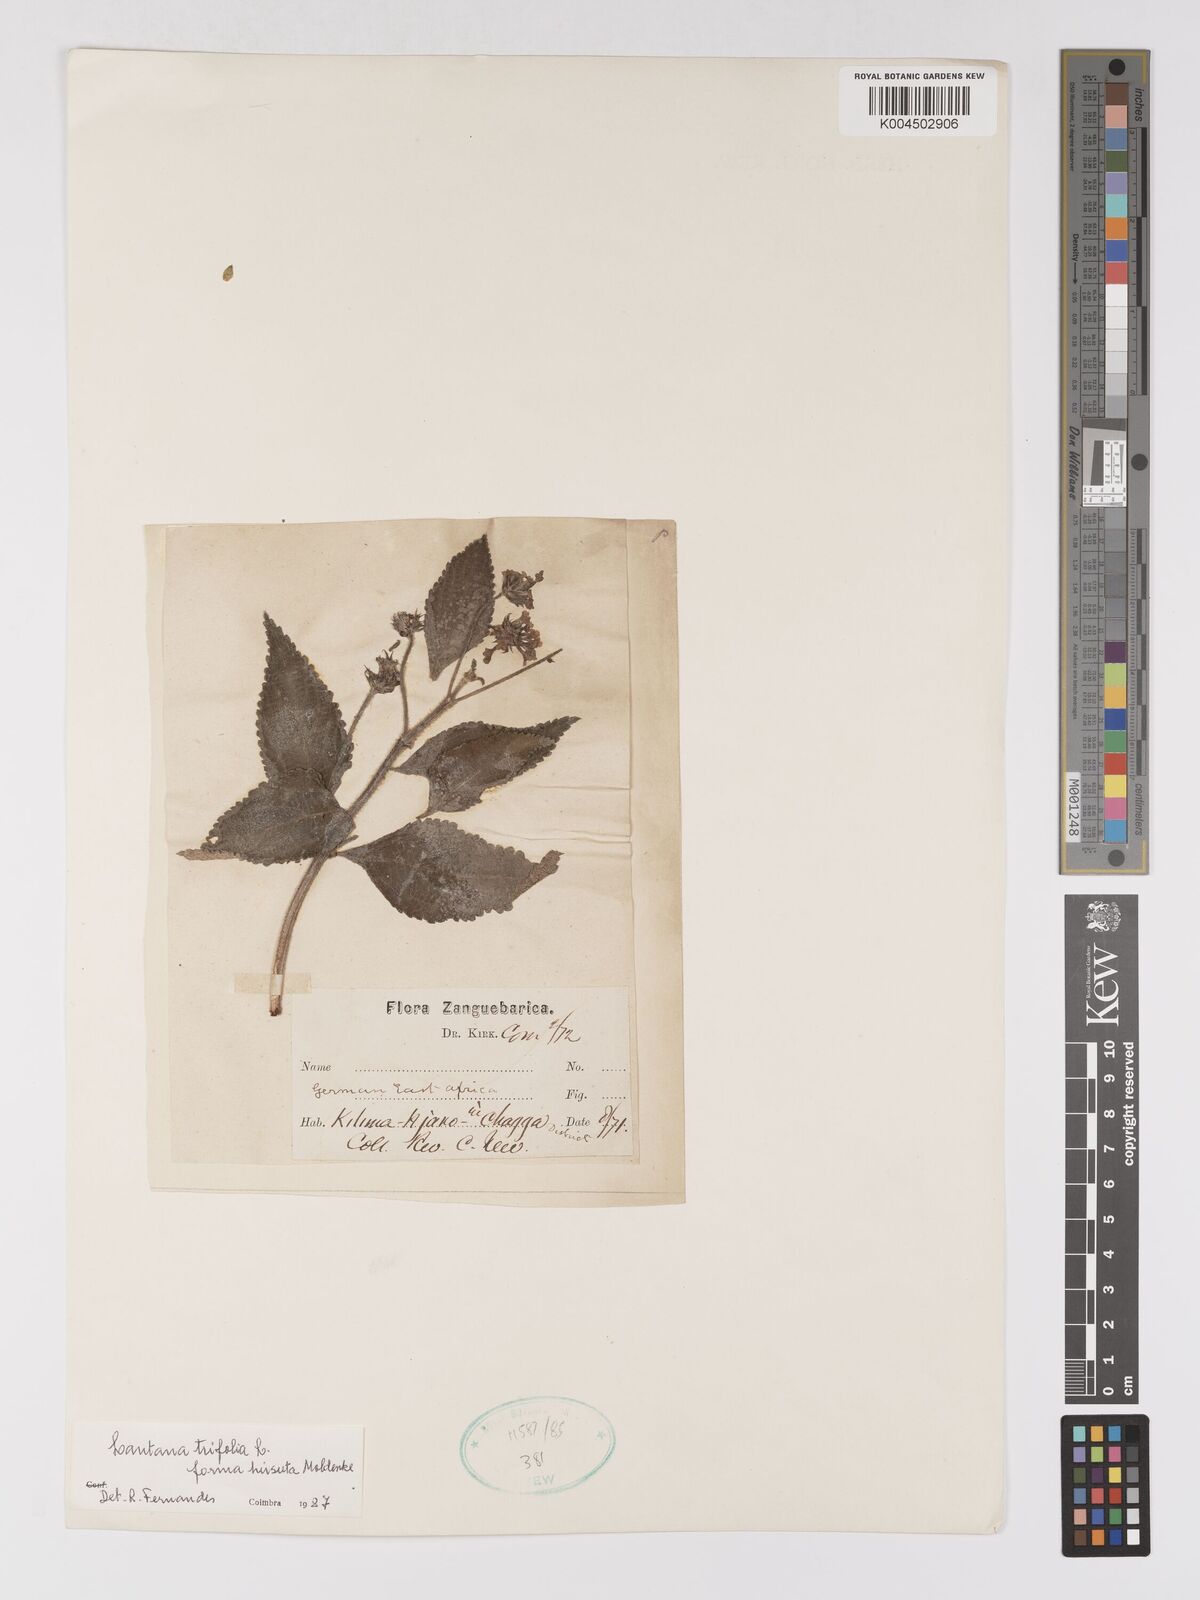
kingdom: Plantae
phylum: Tracheophyta
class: Magnoliopsida
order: Lamiales
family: Verbenaceae
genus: Lantana
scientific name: Lantana trifolia
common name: Sweet-sage
